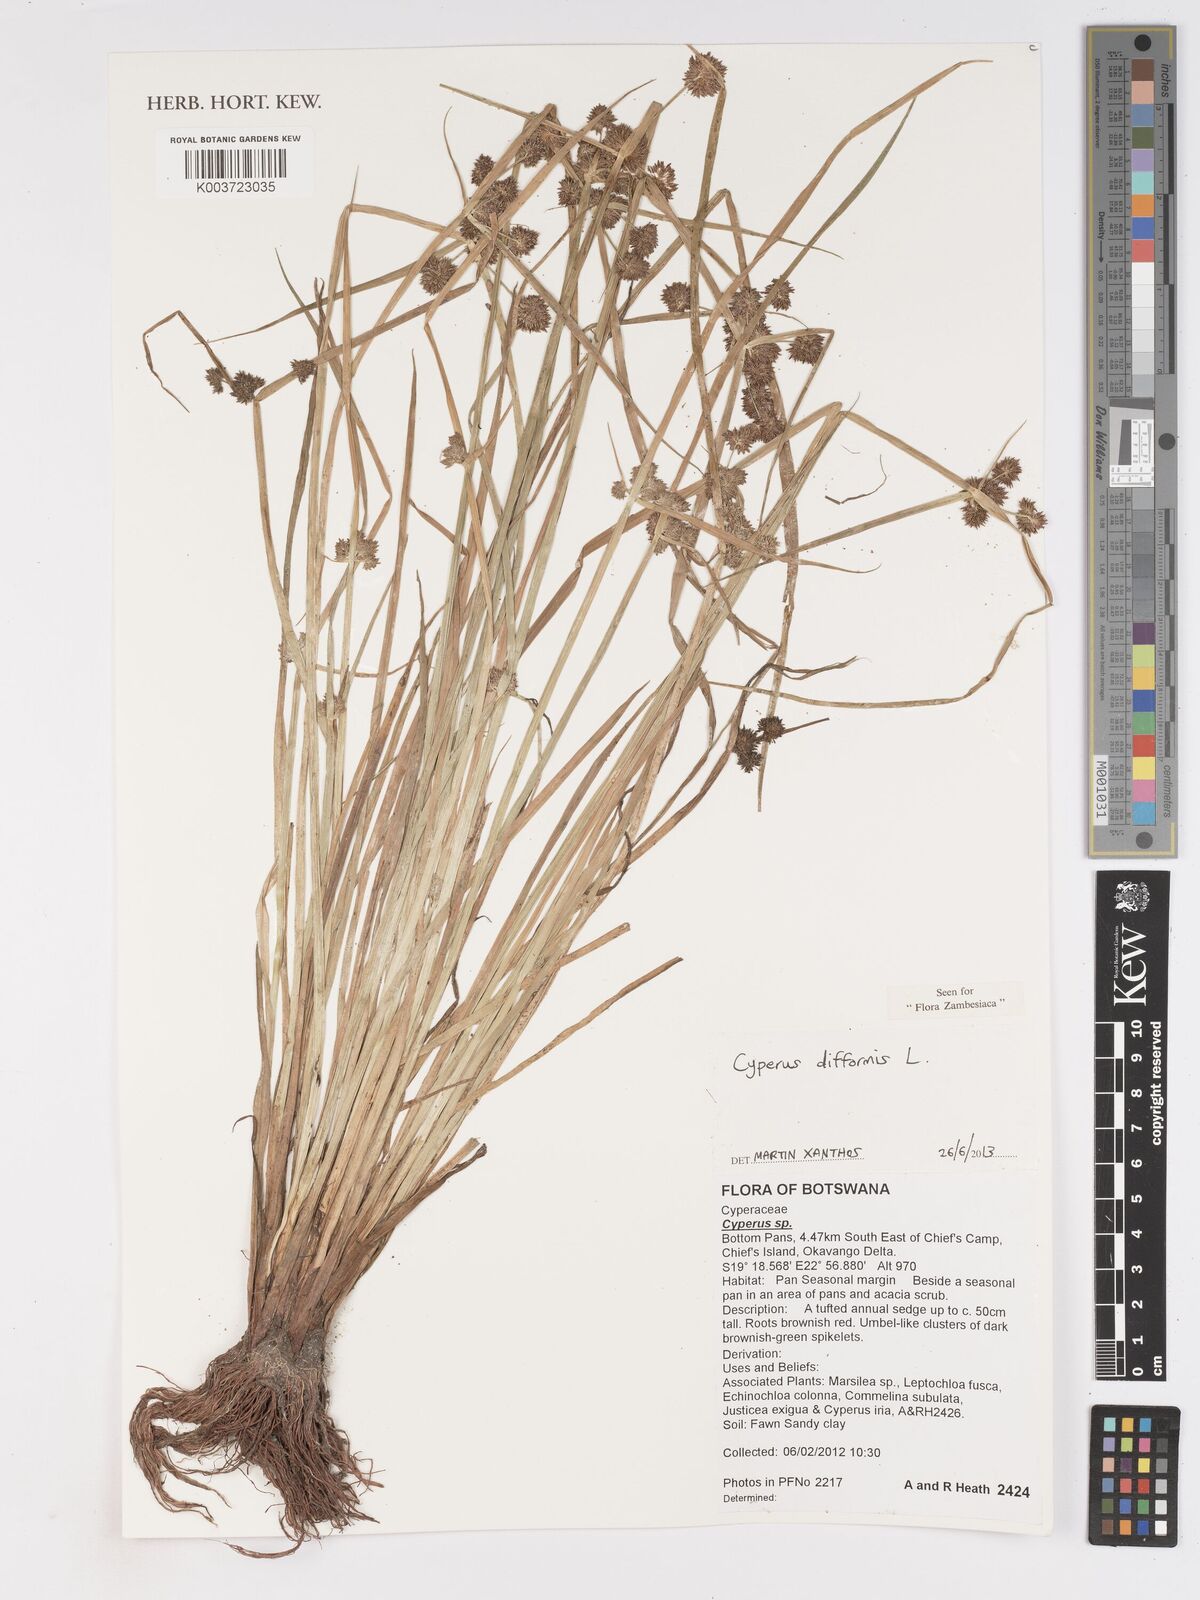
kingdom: Plantae
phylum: Tracheophyta
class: Liliopsida
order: Poales
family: Cyperaceae
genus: Cyperus
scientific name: Cyperus difformis
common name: Variable flatsedge
